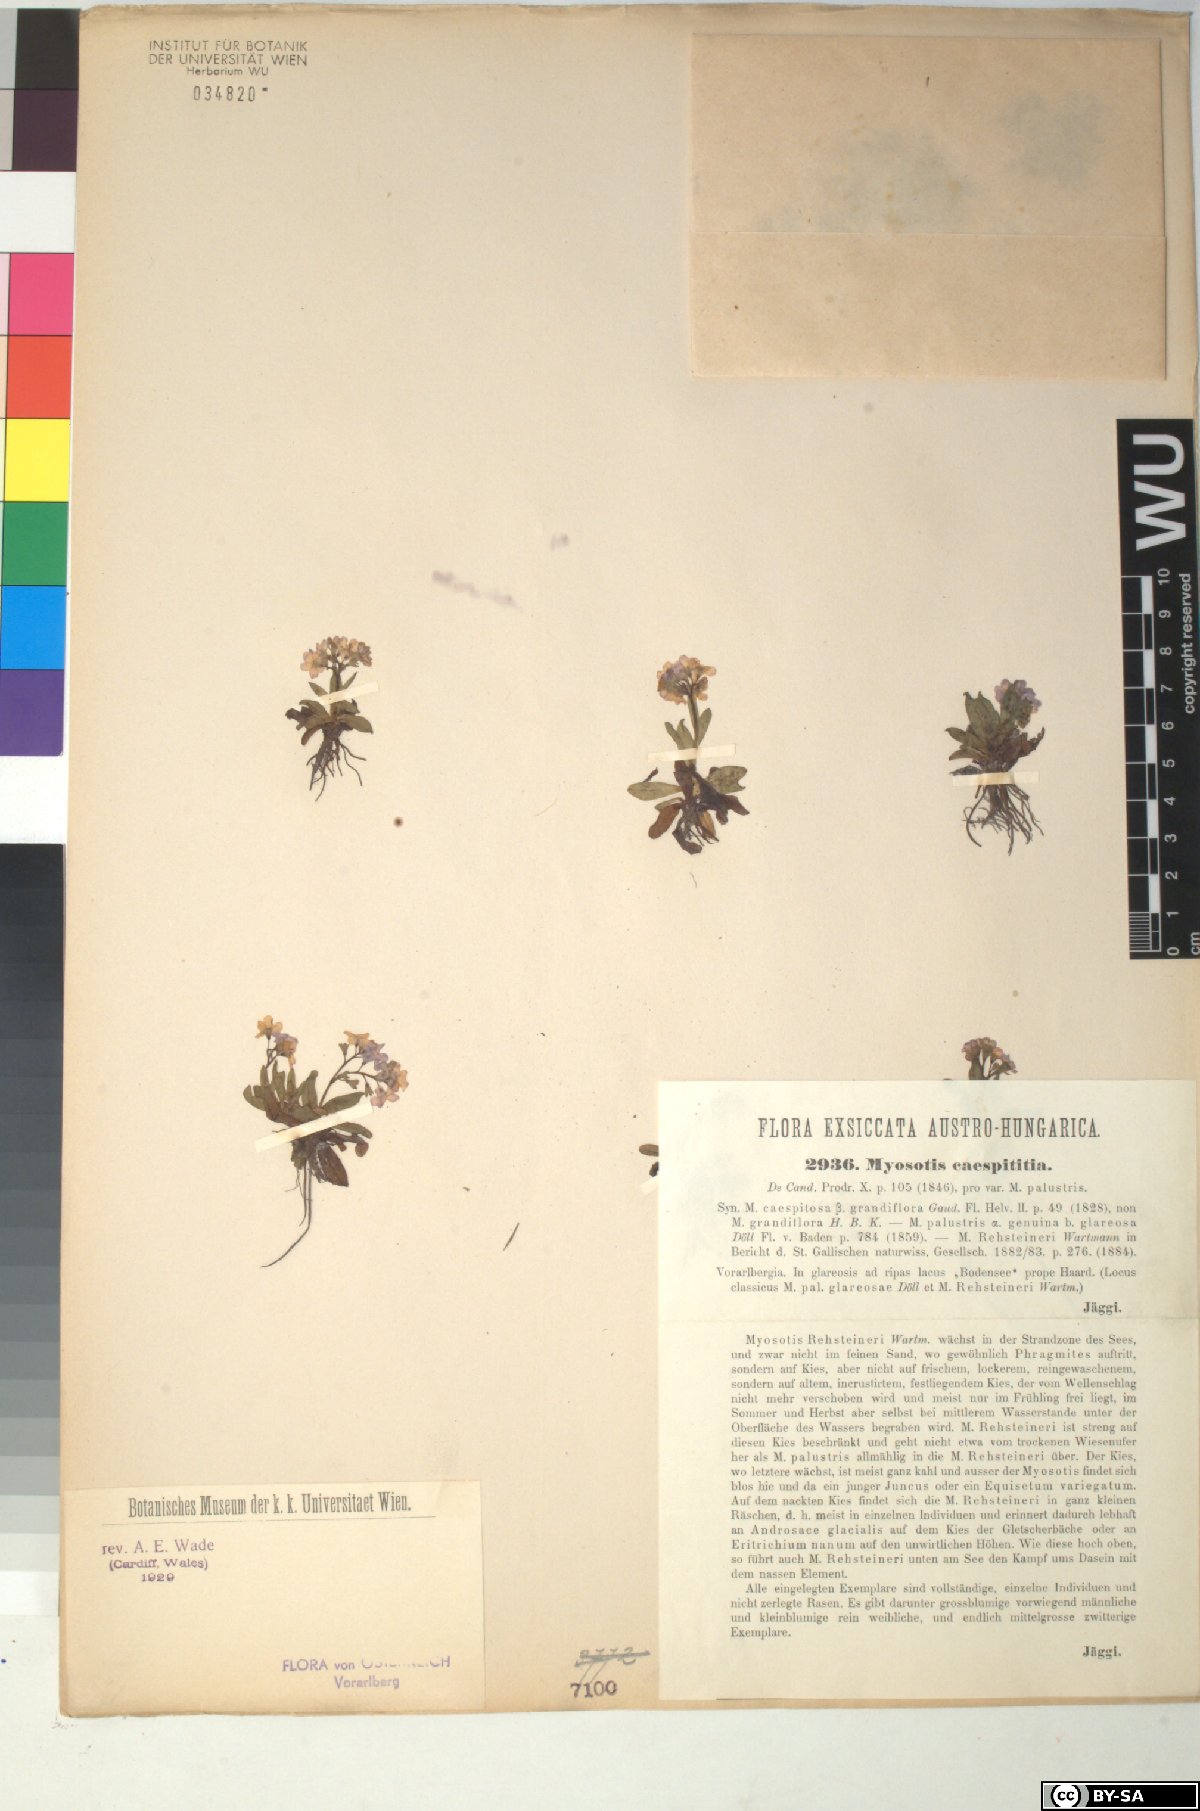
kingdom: Plantae
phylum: Tracheophyta
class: Magnoliopsida
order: Boraginales
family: Boraginaceae
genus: Myosotis
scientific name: Myosotis rehsteineri
